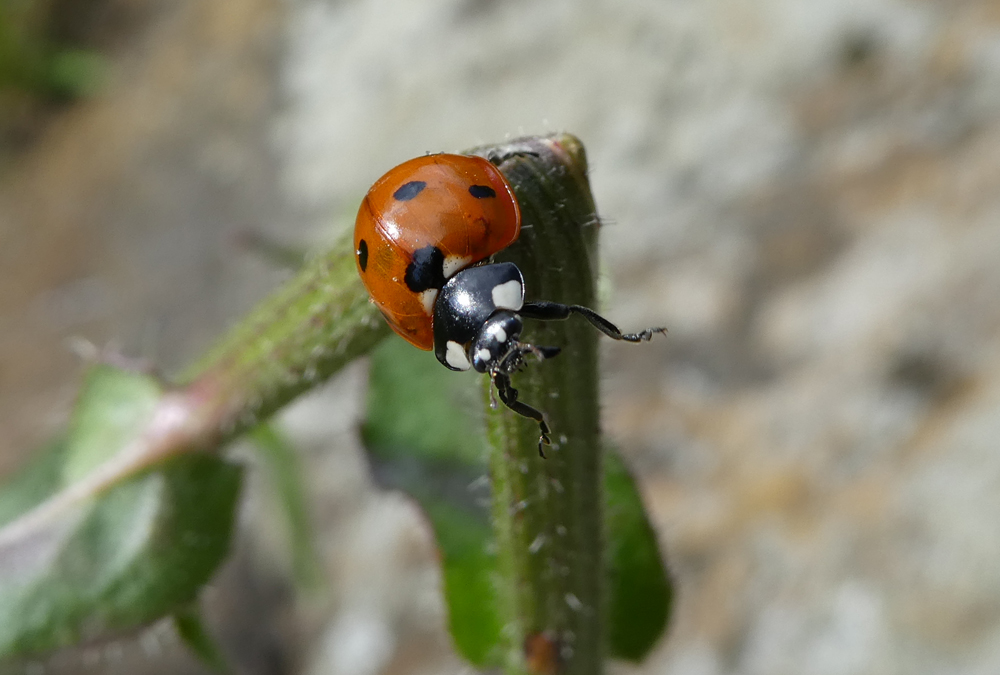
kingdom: Animalia
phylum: Arthropoda
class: Insecta
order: Coleoptera
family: Coccinellidae
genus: Coccinella
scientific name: Coccinella septempunctata
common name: Sevenspotted lady beetle
